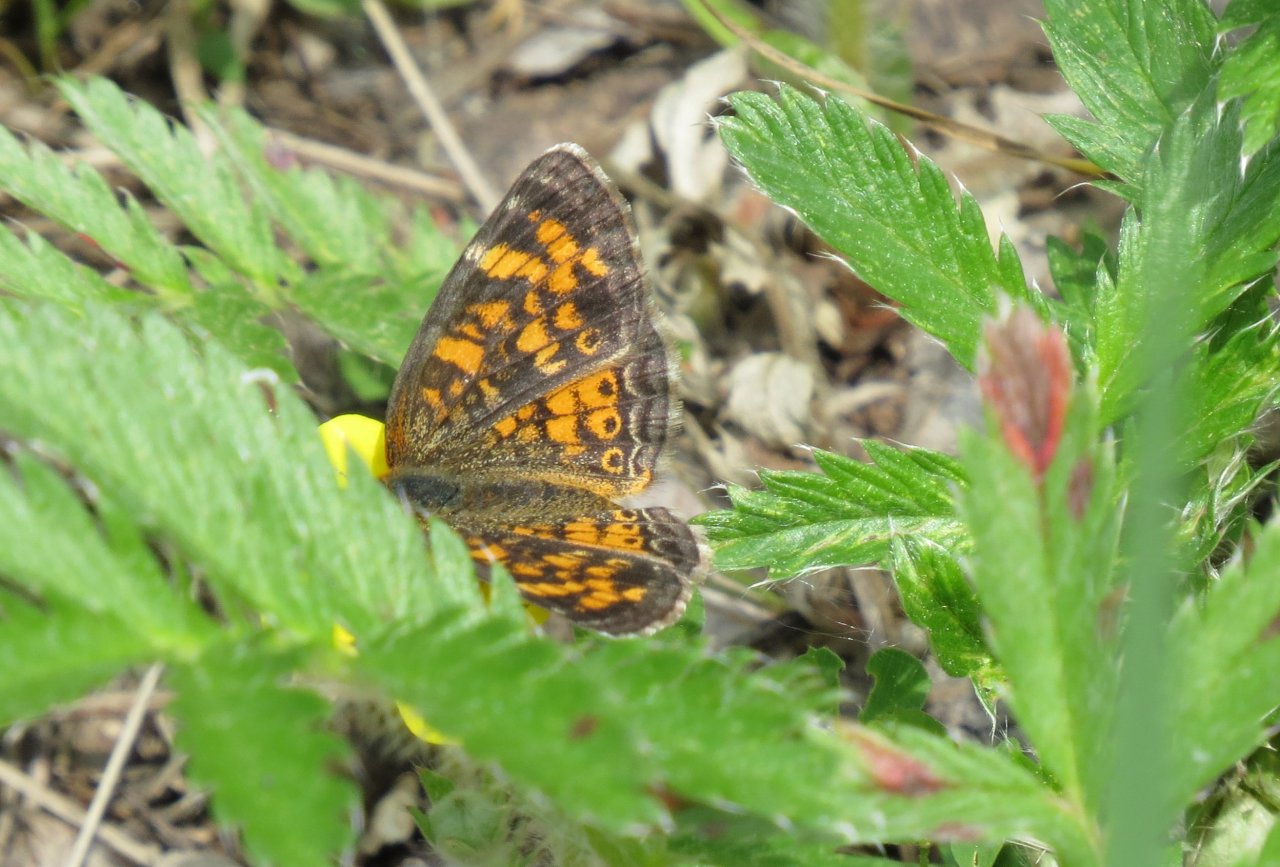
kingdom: Animalia
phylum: Arthropoda
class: Insecta
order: Lepidoptera
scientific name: Lepidoptera
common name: Butterflies
